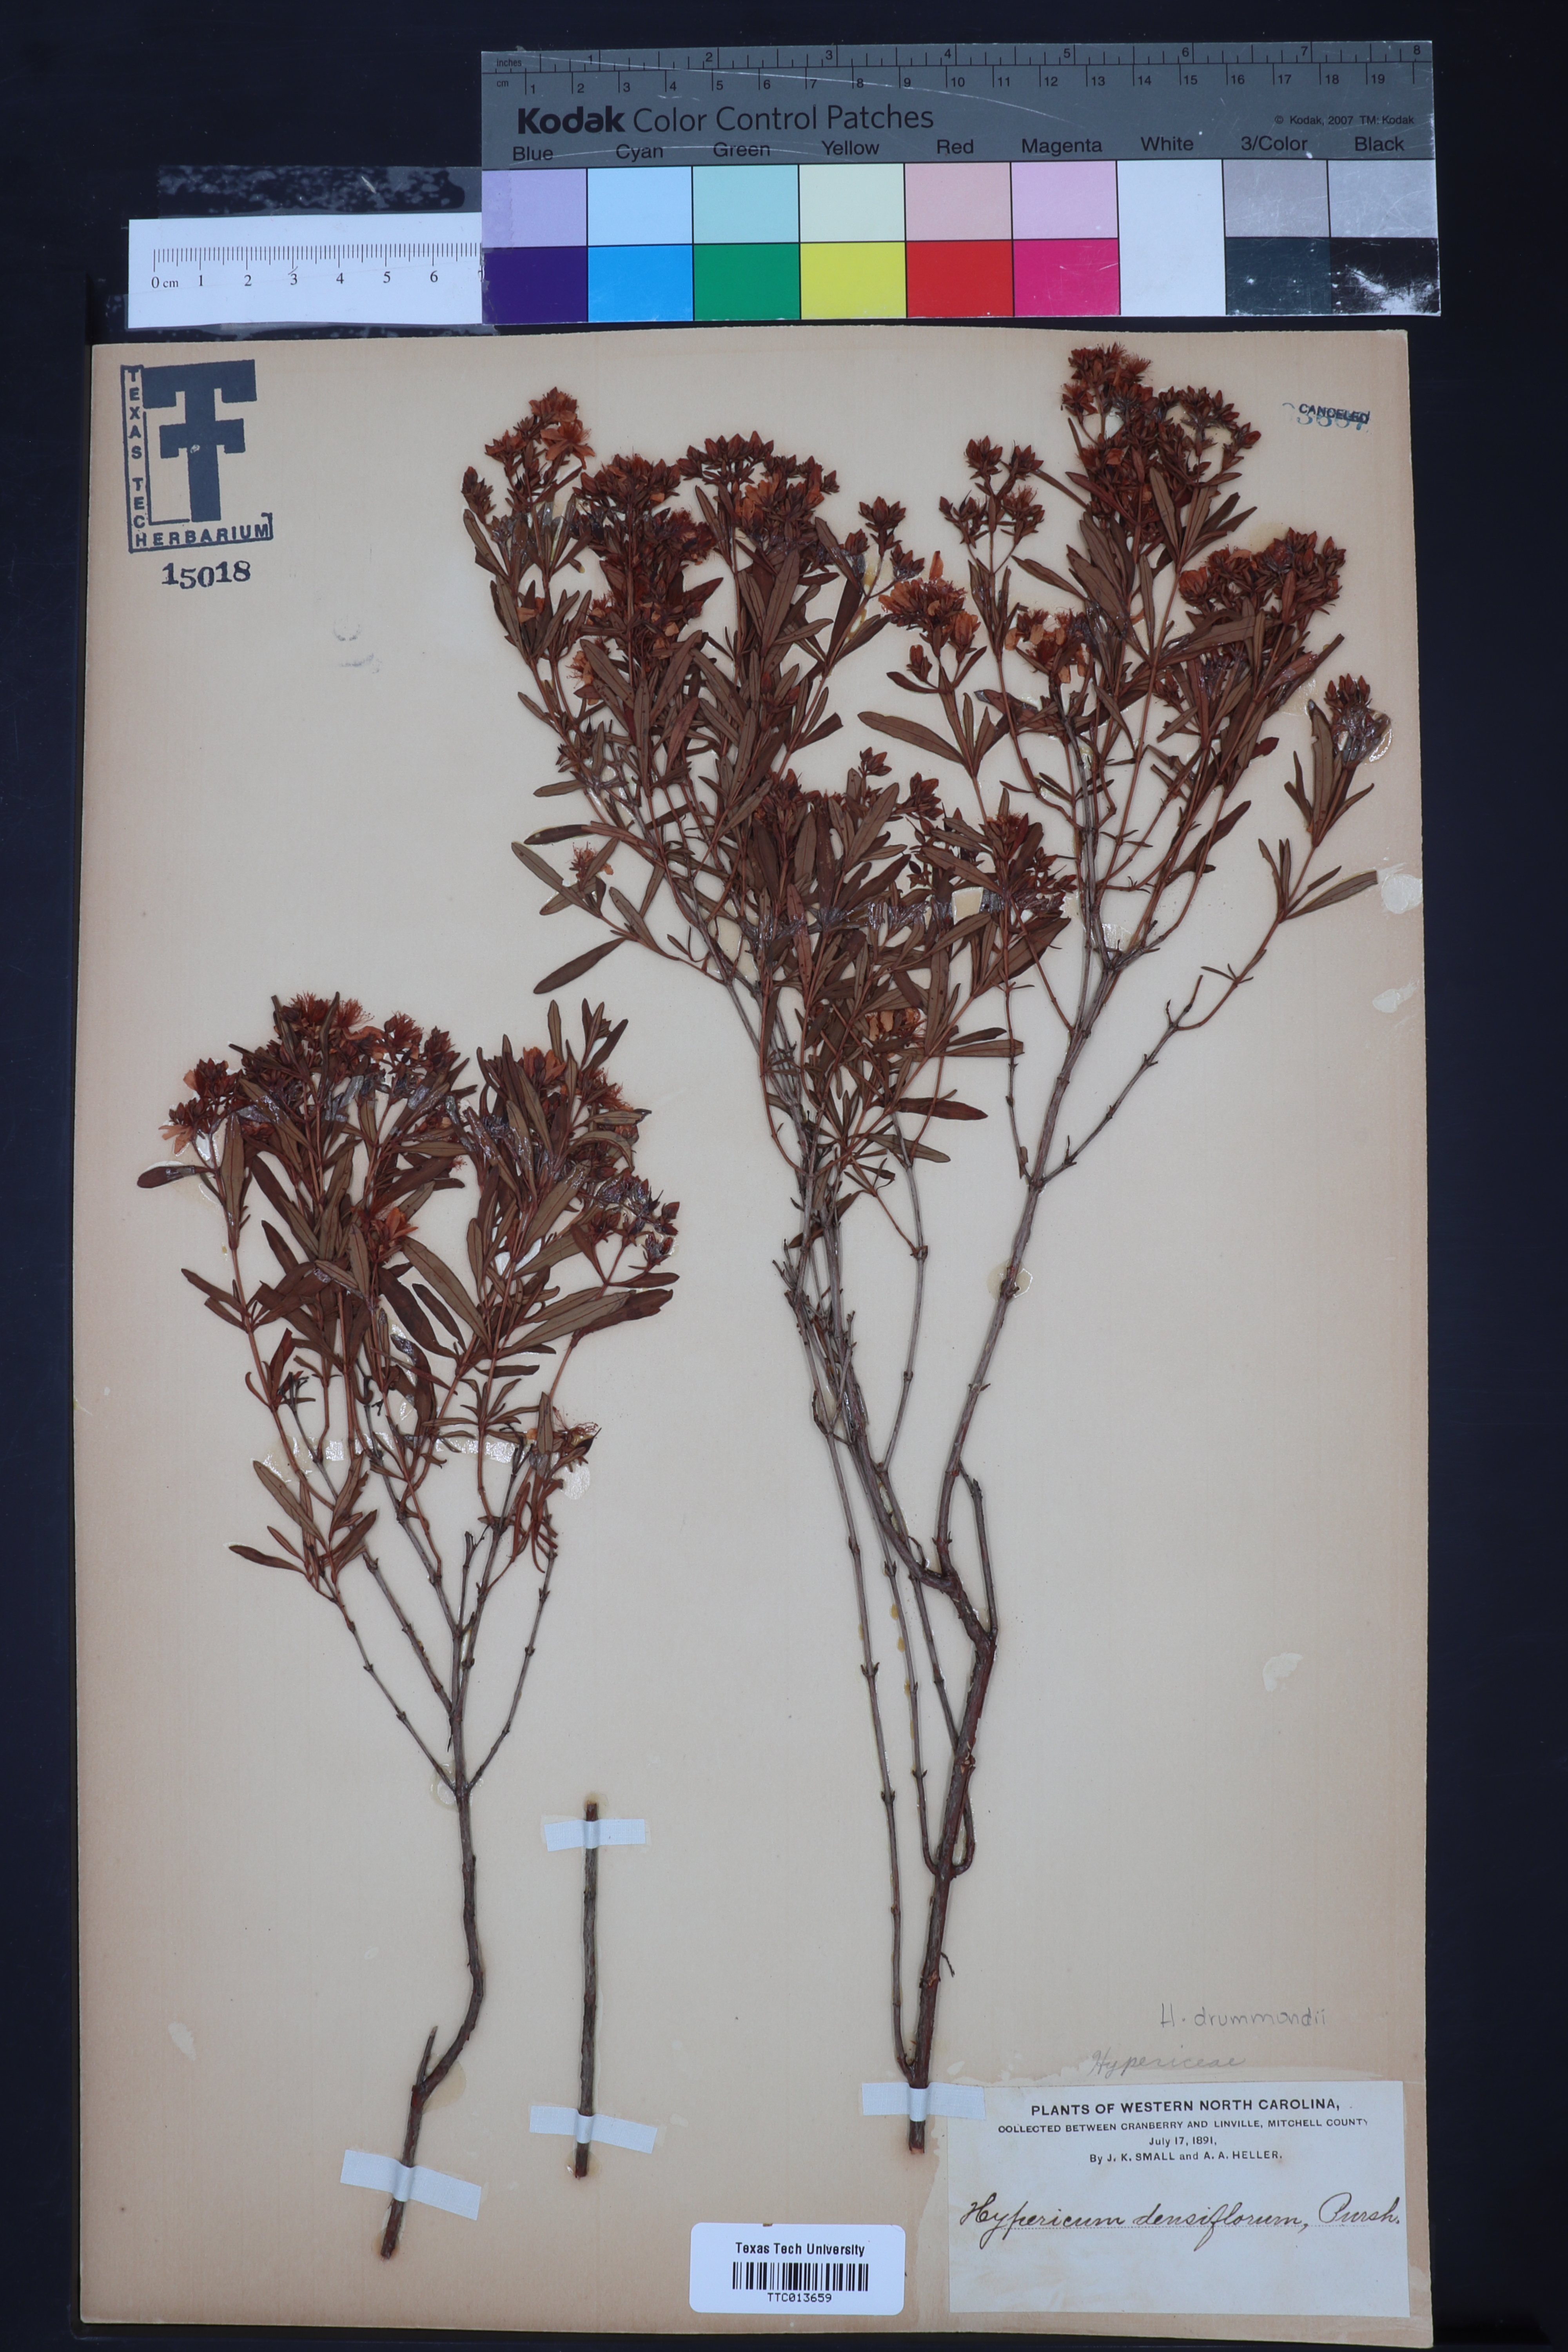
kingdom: Plantae
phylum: Tracheophyta
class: Magnoliopsida
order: Malpighiales
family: Hypericaceae
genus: Hypericum
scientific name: Hypericum densiflorum
